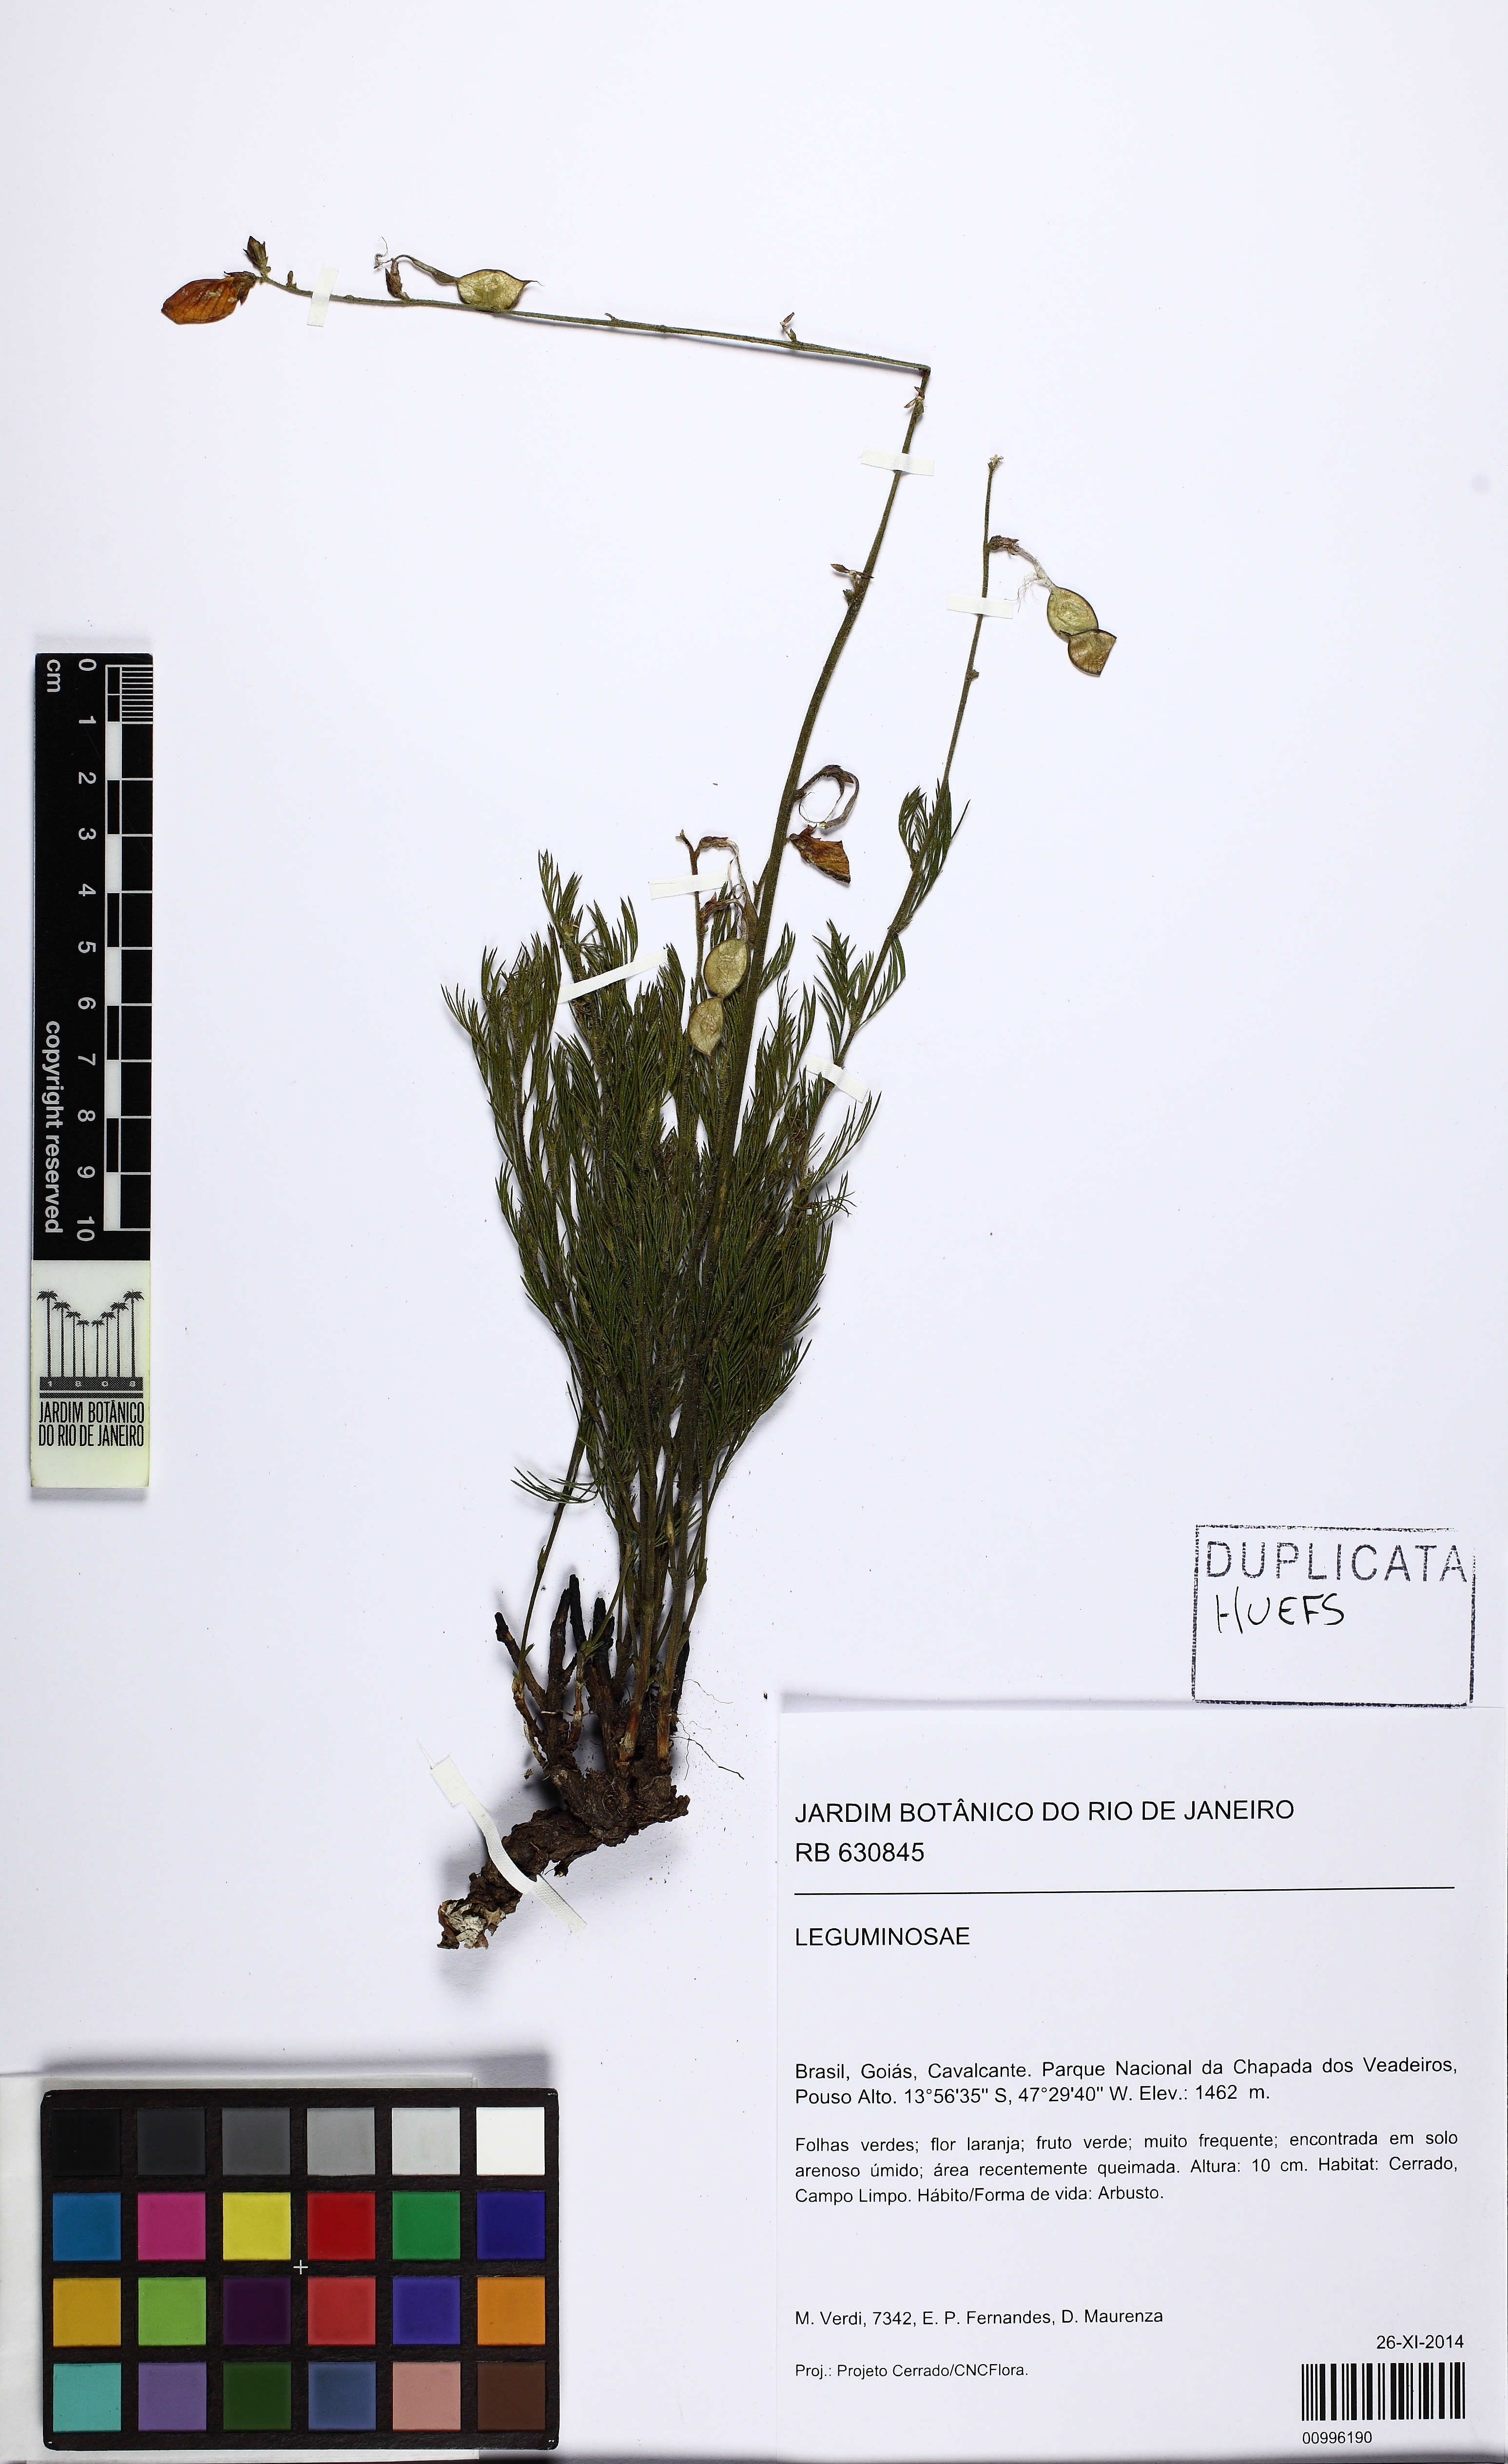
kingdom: Plantae
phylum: Tracheophyta
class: Magnoliopsida
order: Fabales
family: Fabaceae
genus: Aeschynomene
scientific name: Aeschynomene
